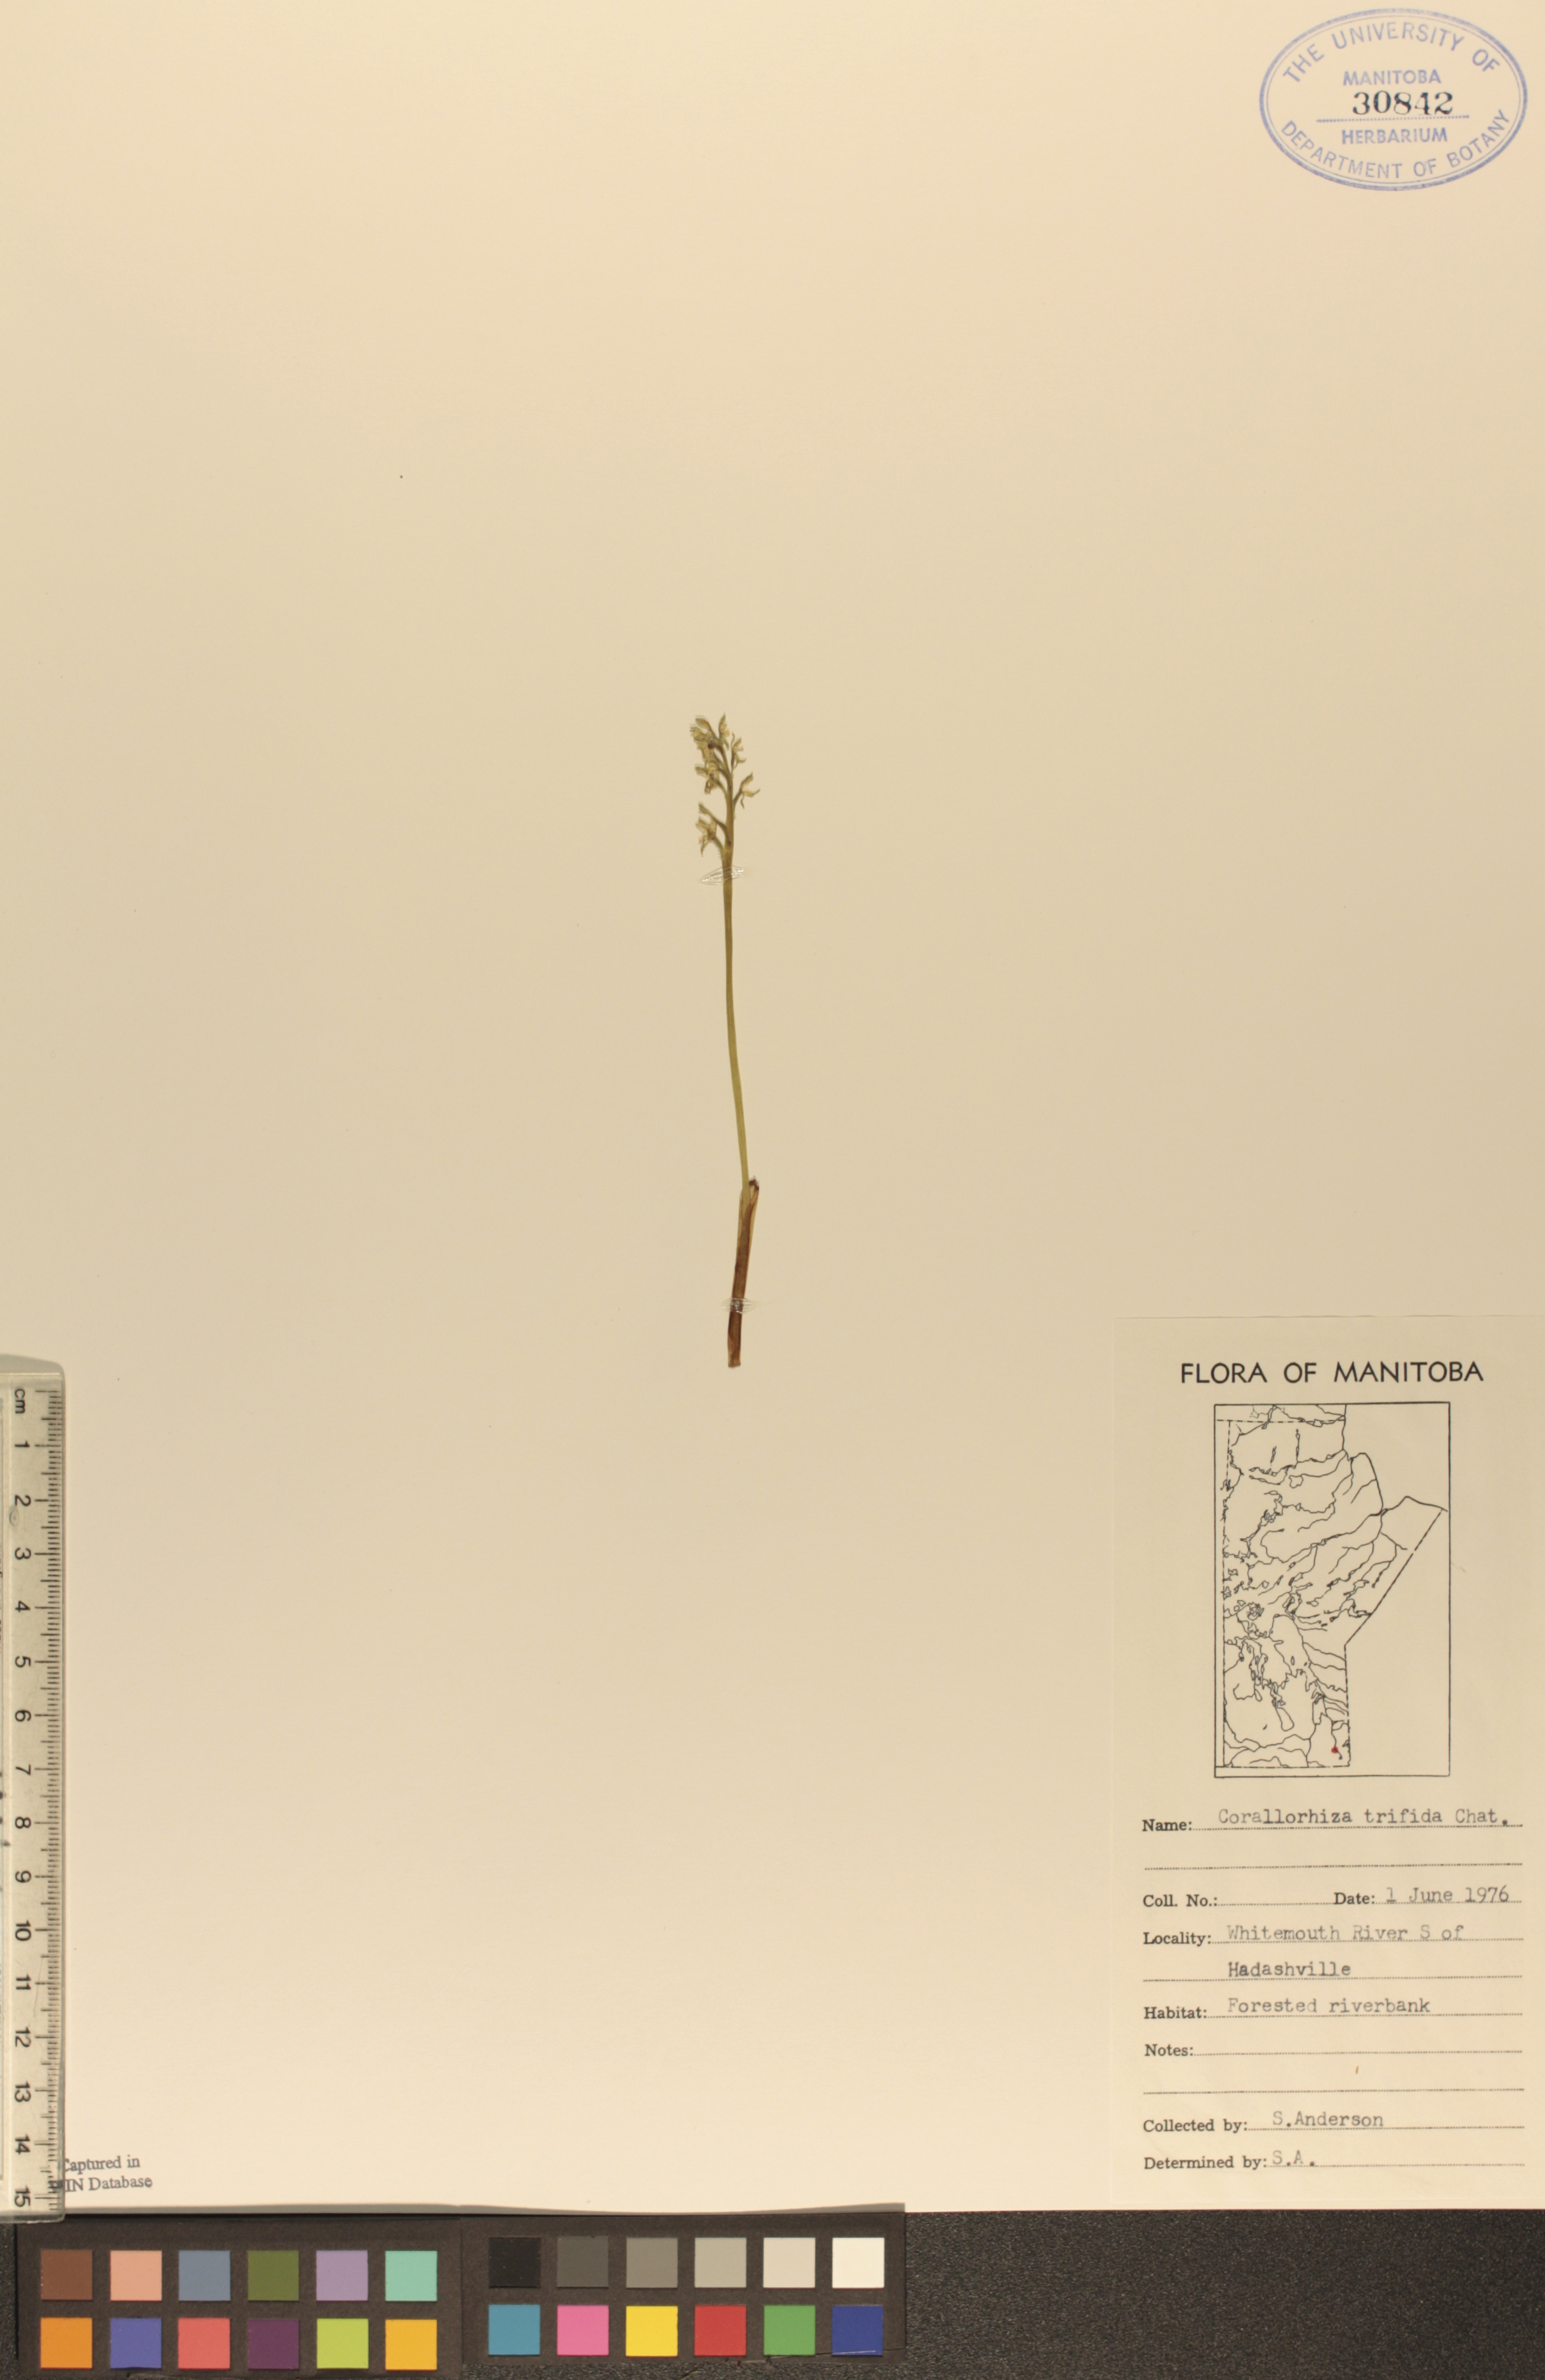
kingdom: Plantae
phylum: Tracheophyta
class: Liliopsida
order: Asparagales
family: Orchidaceae
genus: Corallorhiza
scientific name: Corallorhiza trifida
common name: Yellow coralroot
